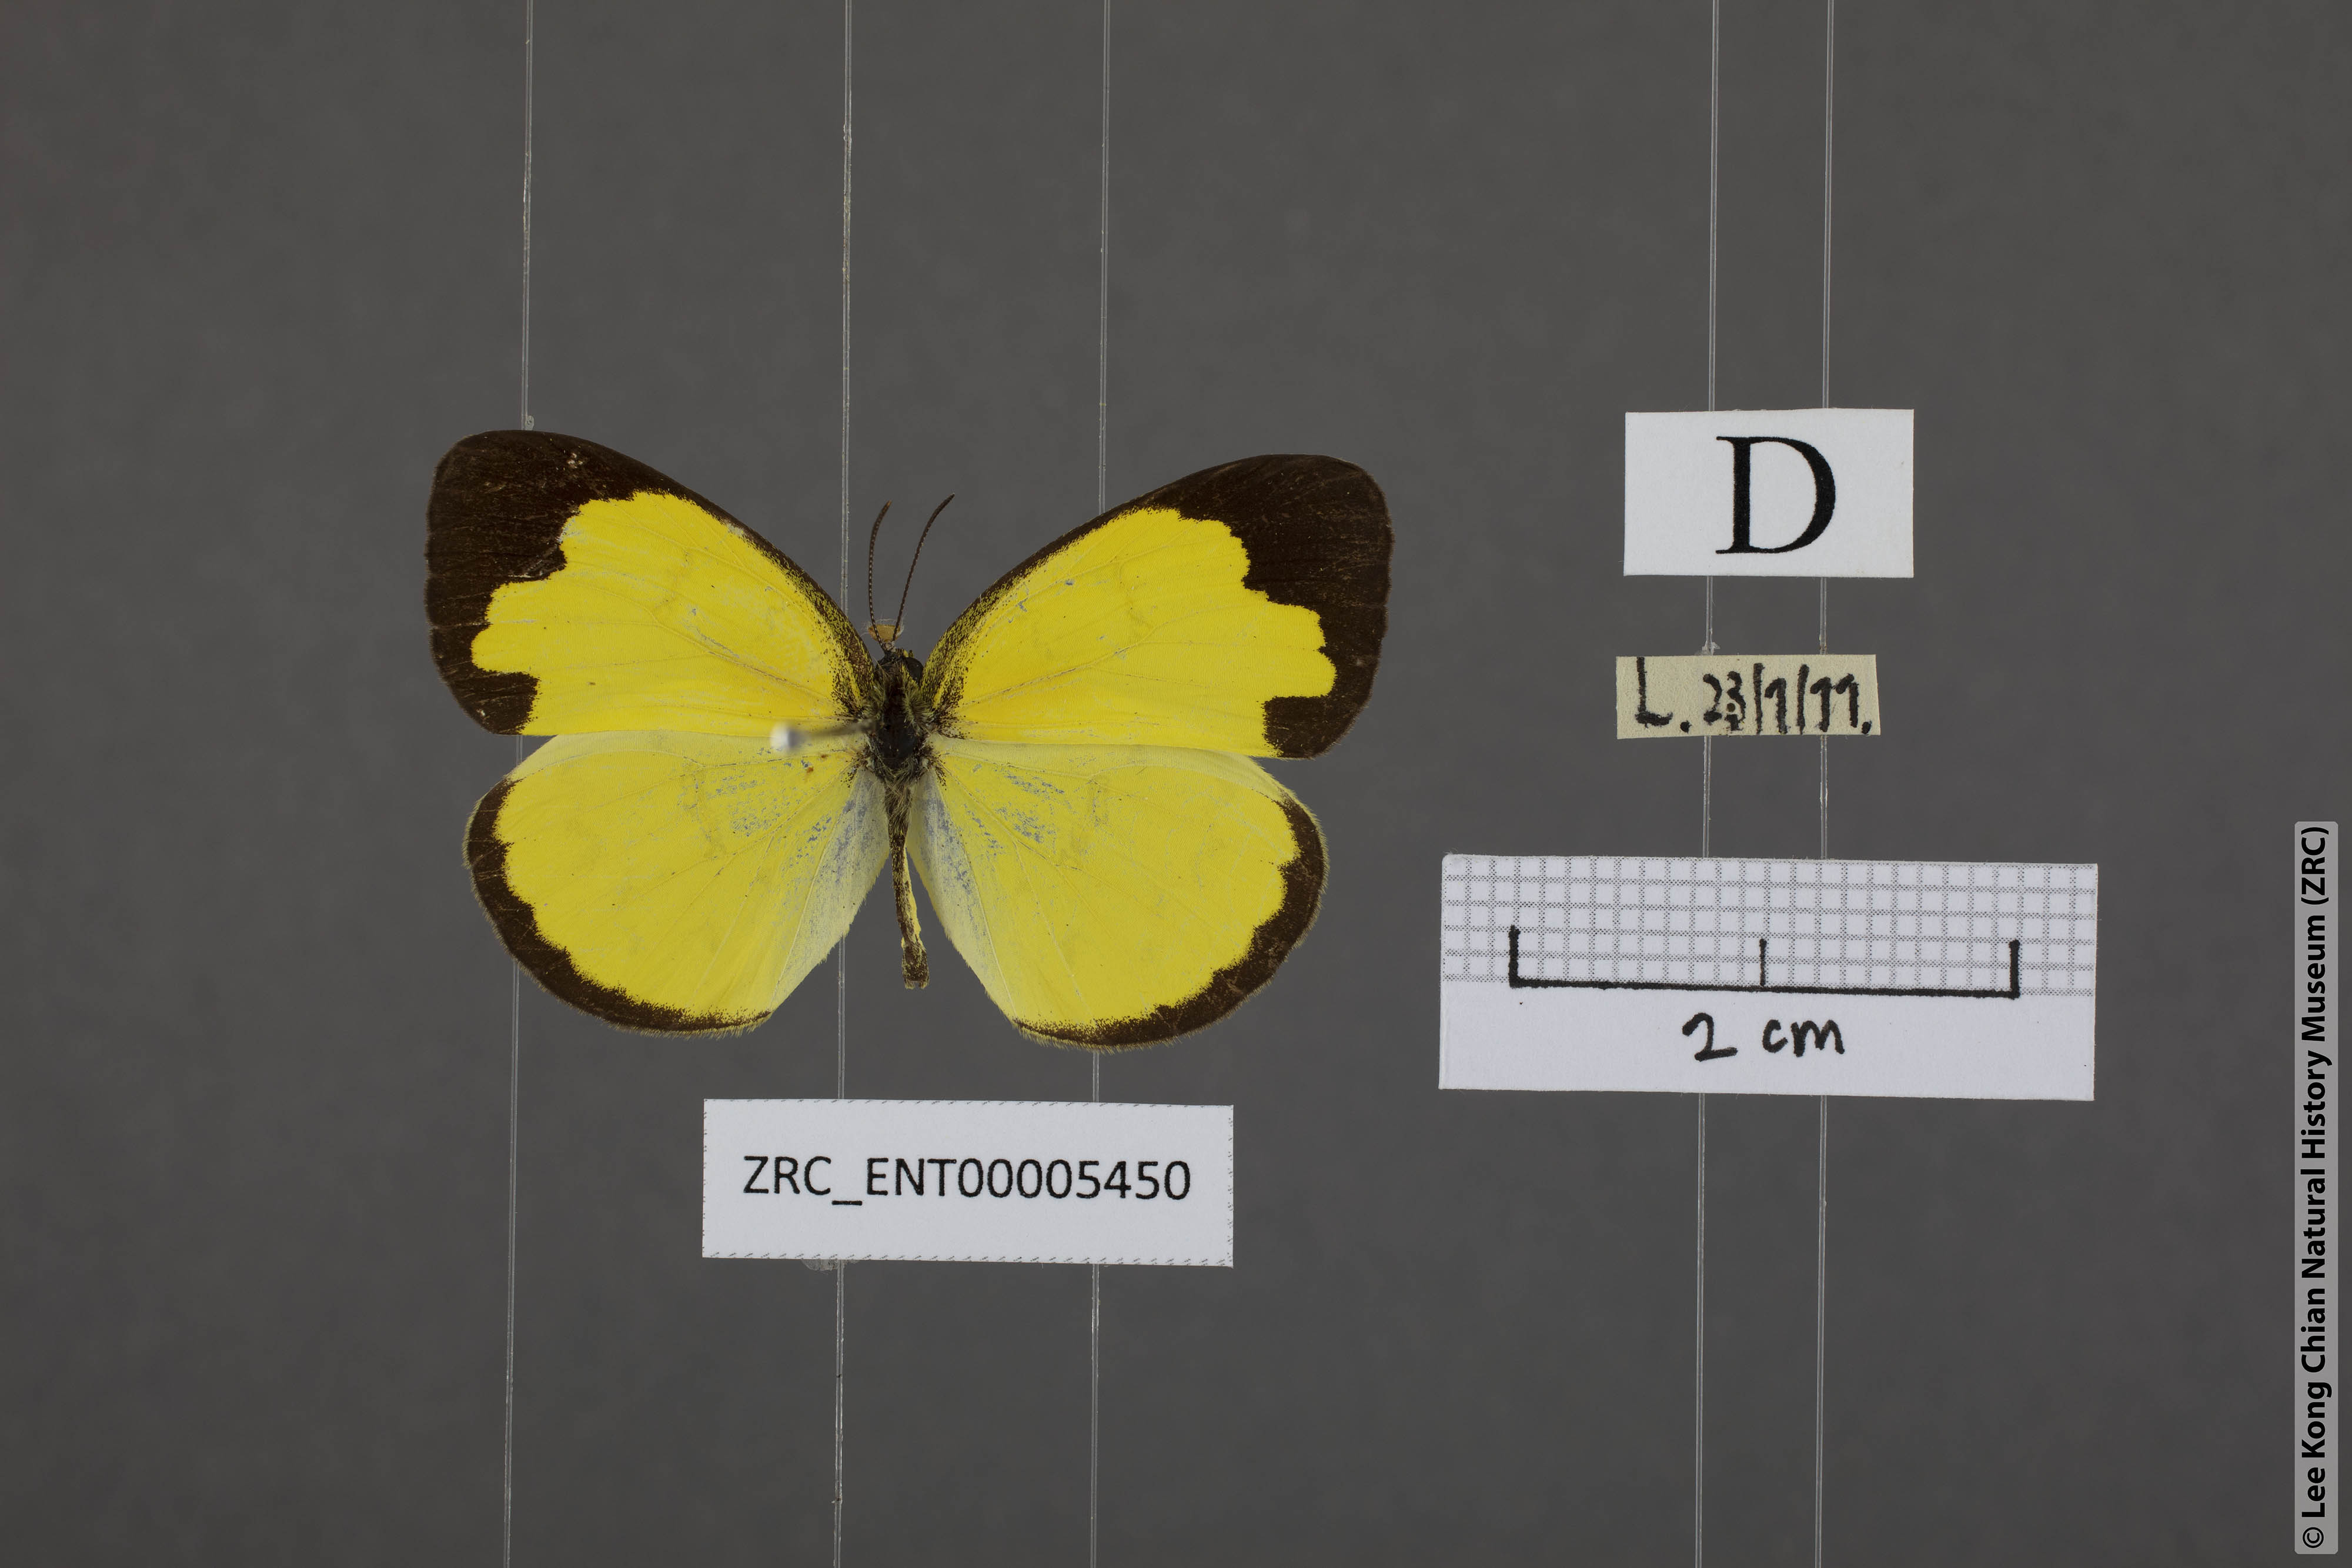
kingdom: Animalia
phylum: Arthropoda
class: Insecta
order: Lepidoptera
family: Pieridae
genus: Eurema
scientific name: Eurema lacteola
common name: Scarce grass yellow
